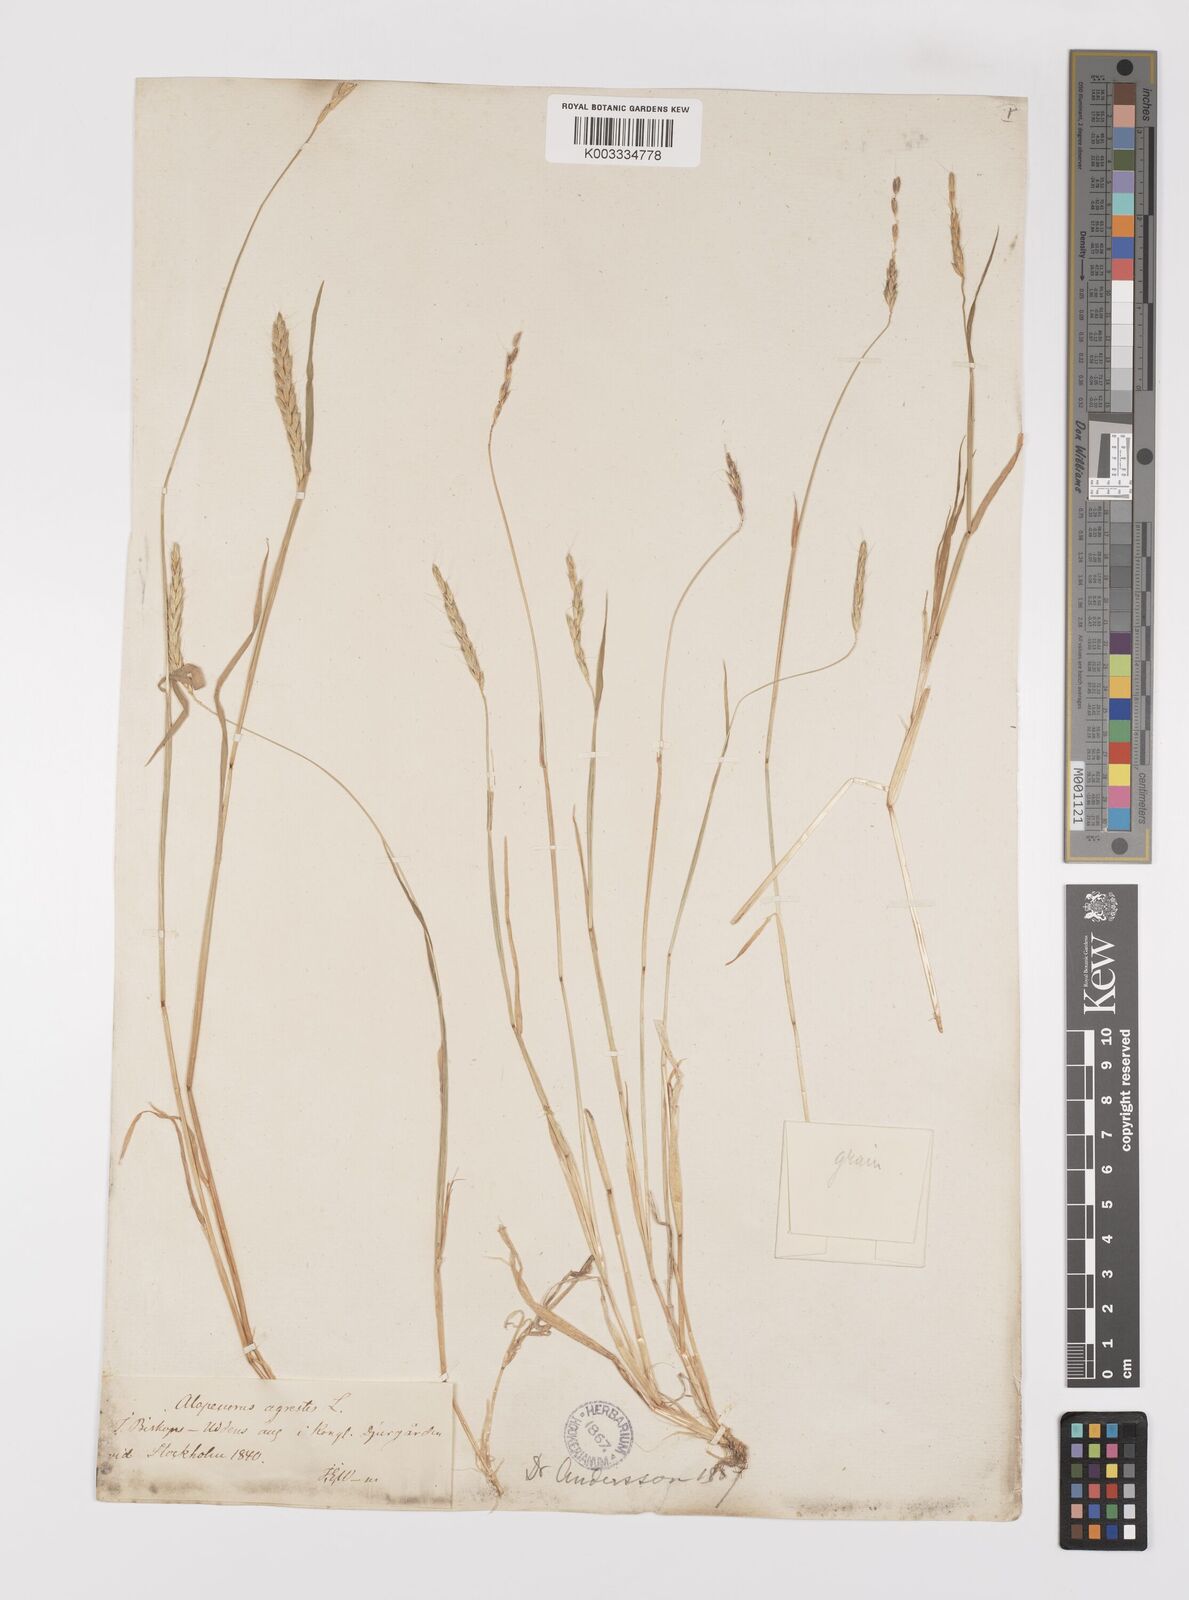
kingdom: Plantae
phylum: Tracheophyta
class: Liliopsida
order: Poales
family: Poaceae
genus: Alopecurus
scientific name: Alopecurus myosuroides
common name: Black-grass
